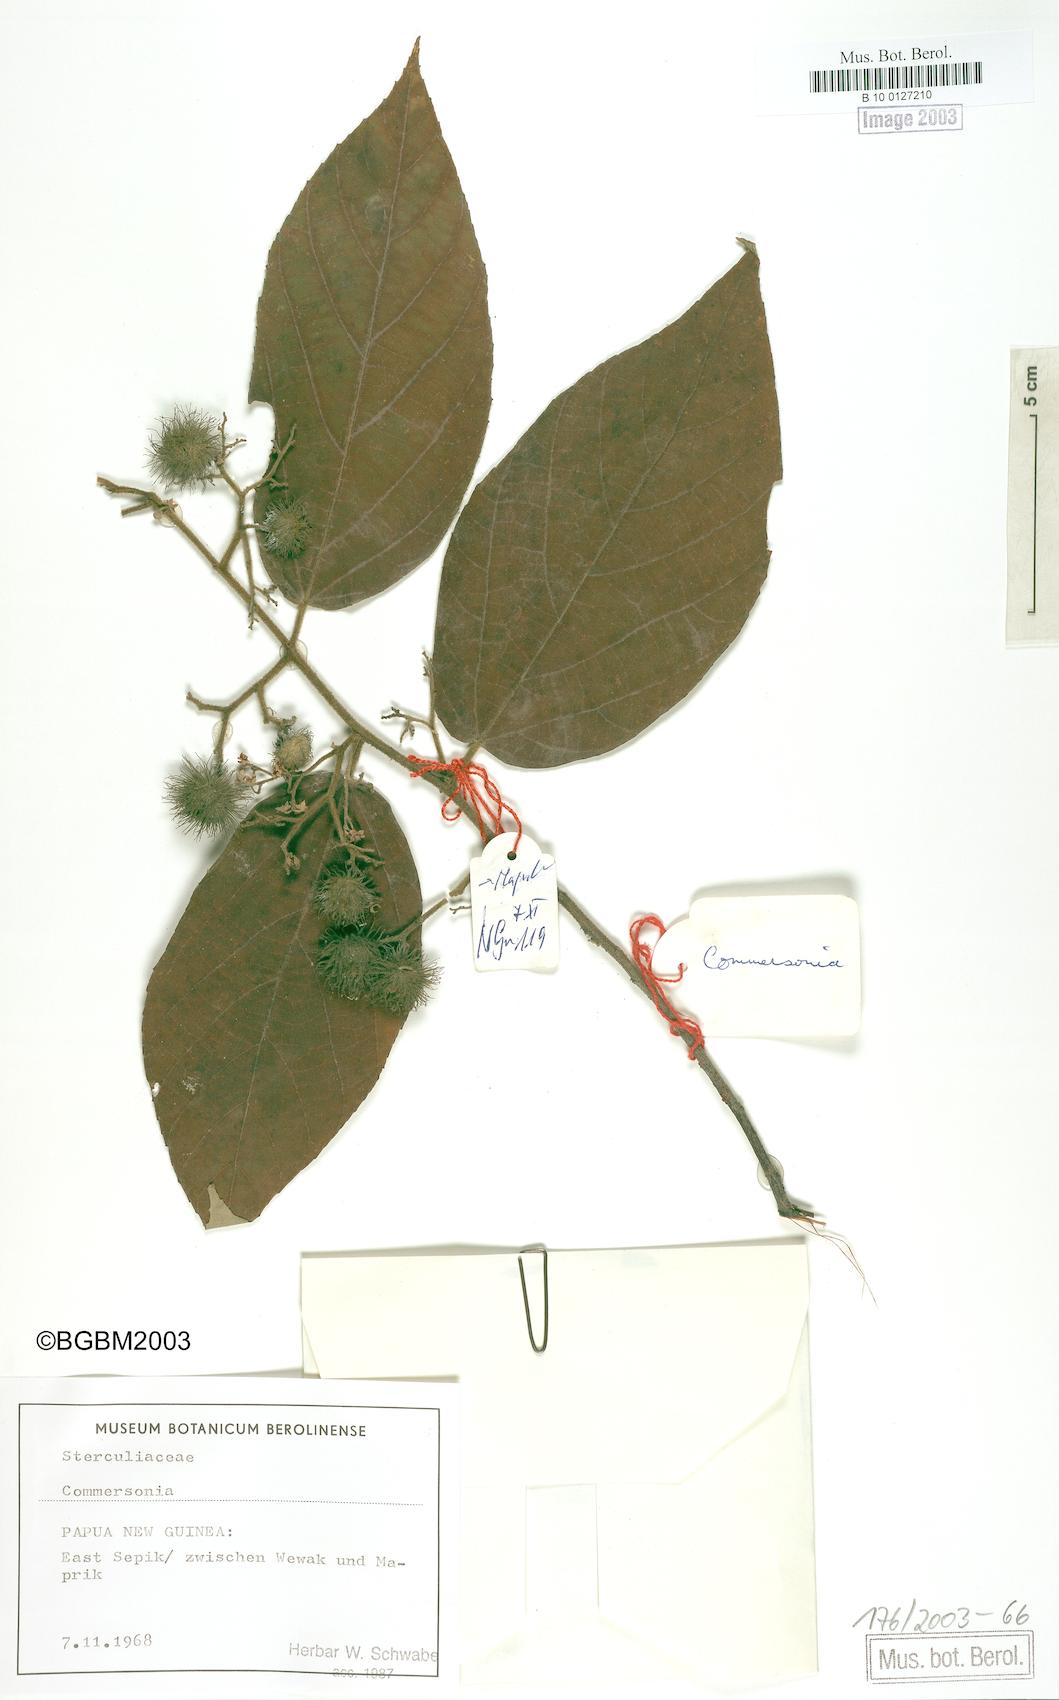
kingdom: Plantae
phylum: Tracheophyta
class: Magnoliopsida
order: Malvales
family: Malvaceae
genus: Commersonia
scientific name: Commersonia
